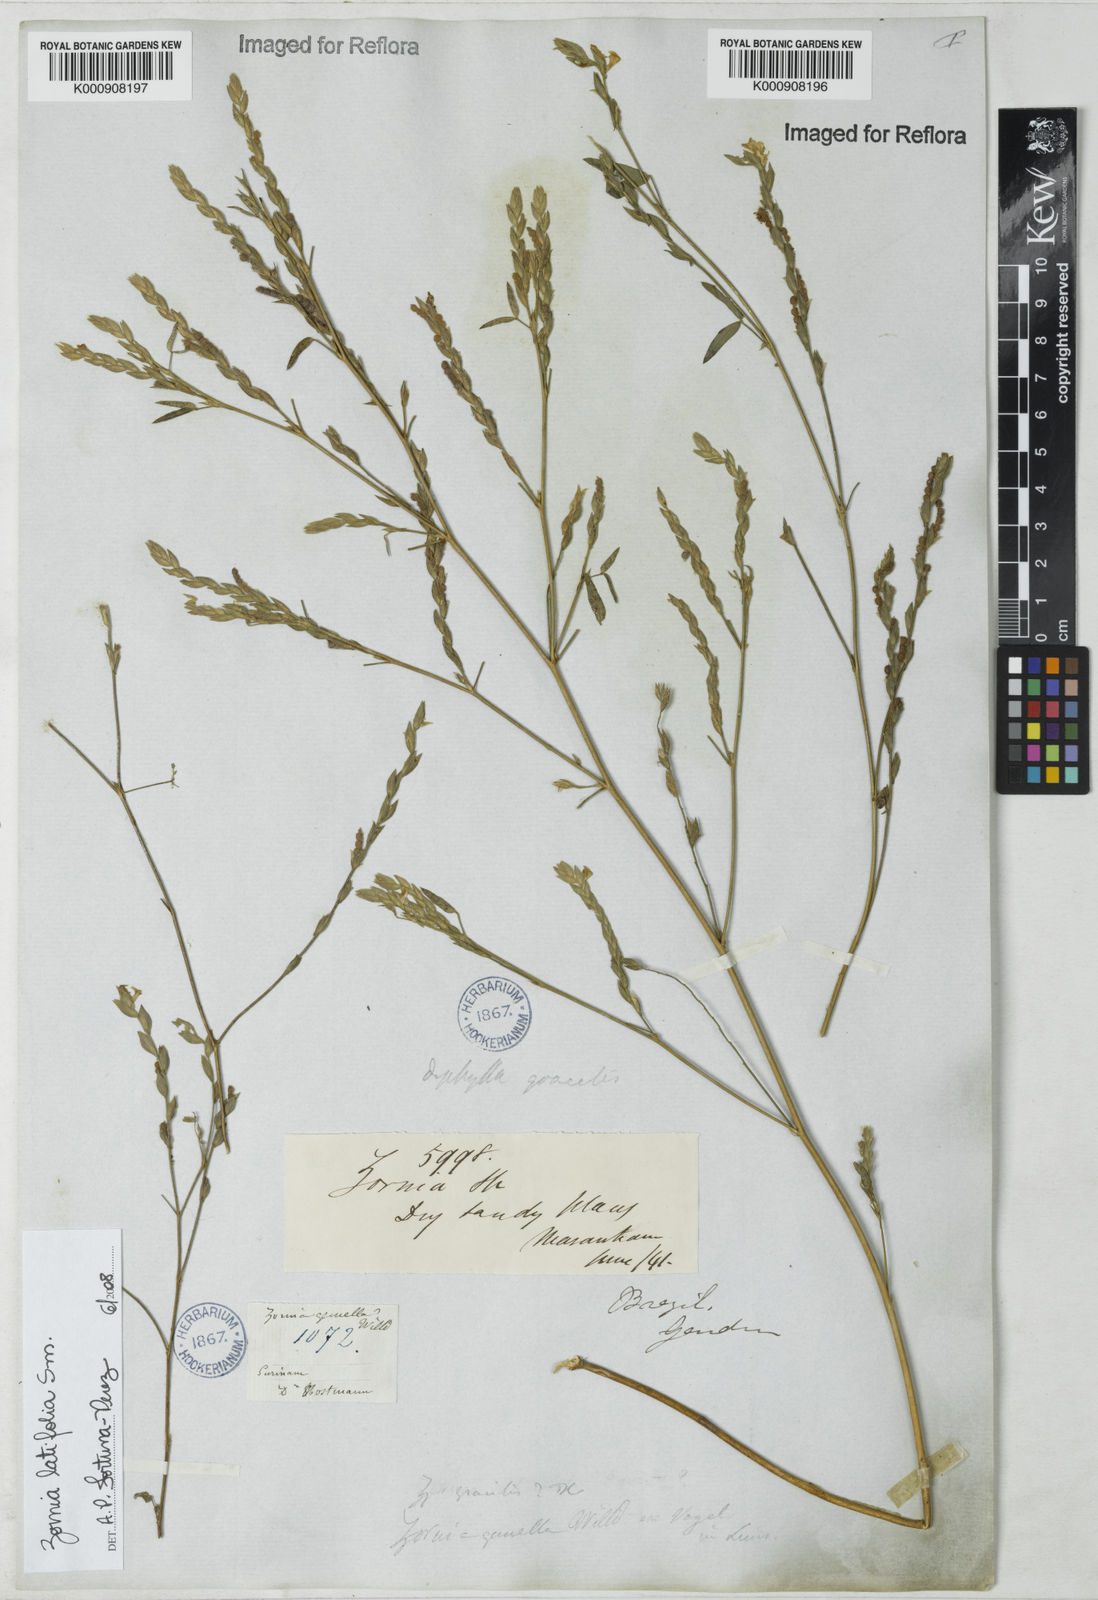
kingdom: Plantae
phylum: Tracheophyta
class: Magnoliopsida
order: Fabales
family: Fabaceae
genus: Zornia
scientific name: Zornia latifolia
